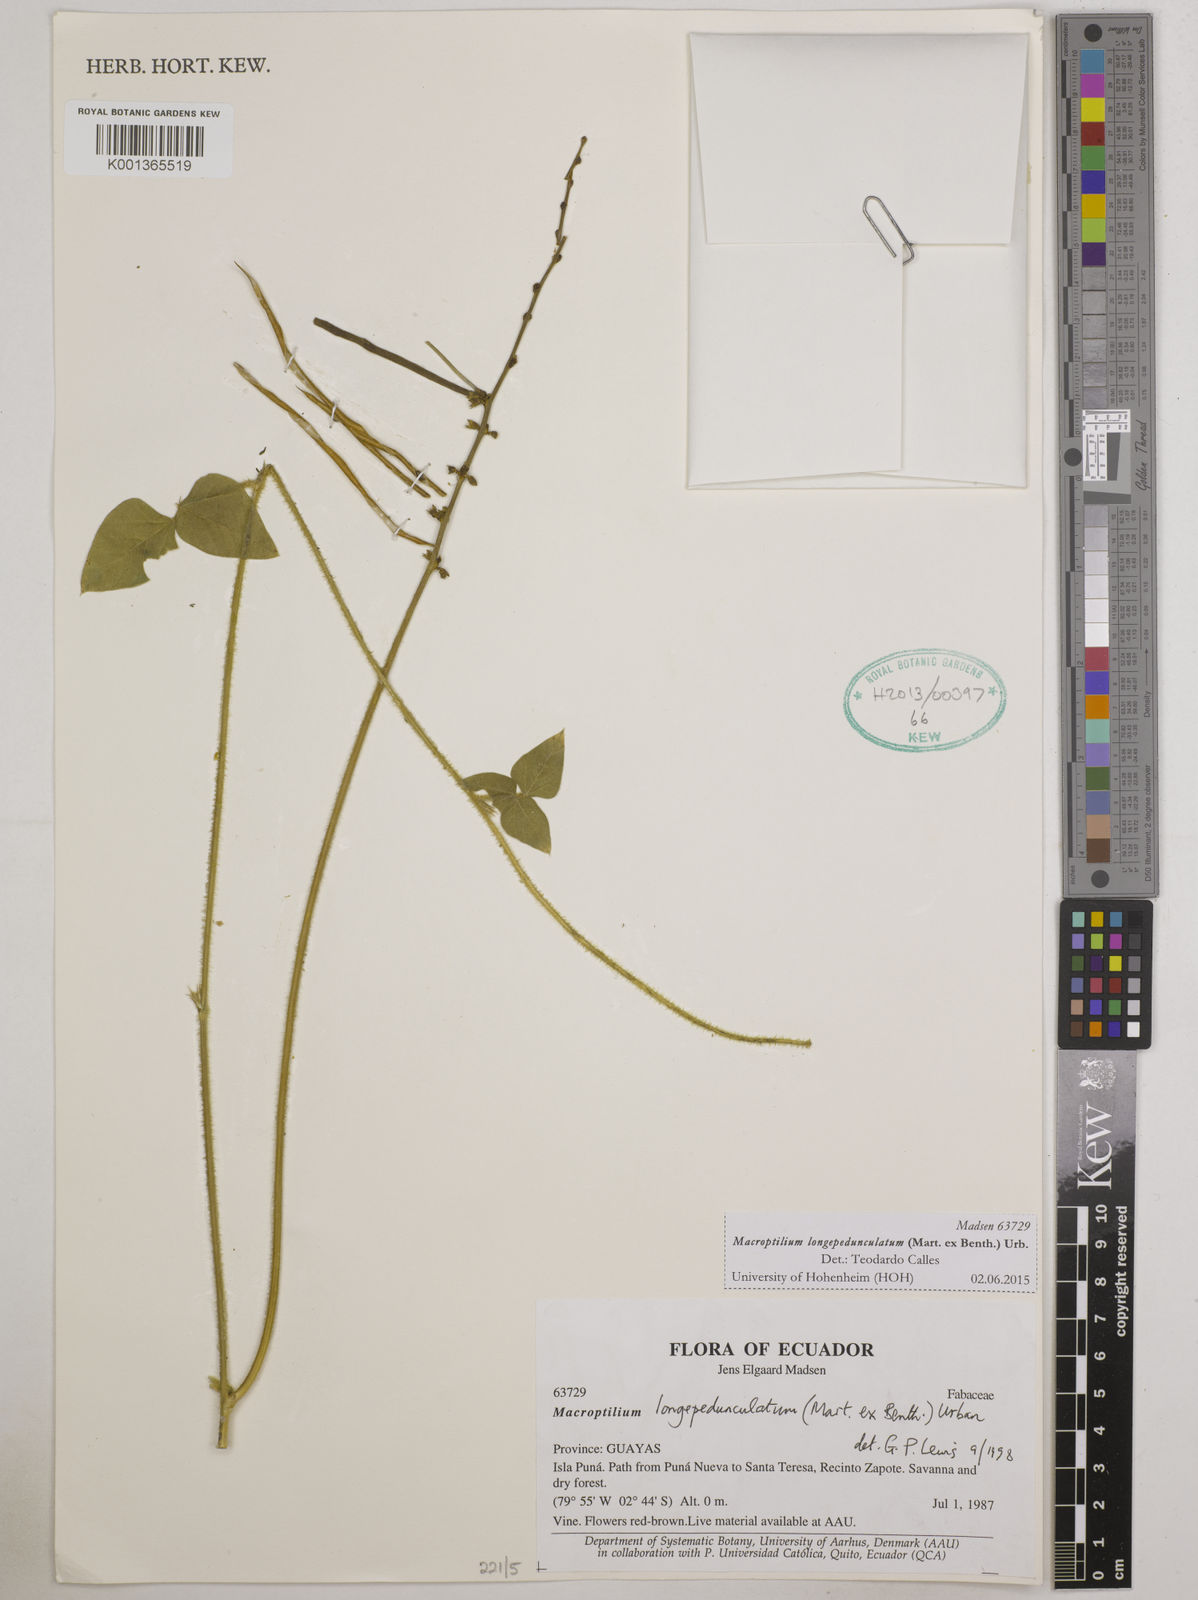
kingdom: Plantae
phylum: Tracheophyta
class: Magnoliopsida
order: Fabales
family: Fabaceae
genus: Macroptilium
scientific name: Macroptilium longepedunculatum
